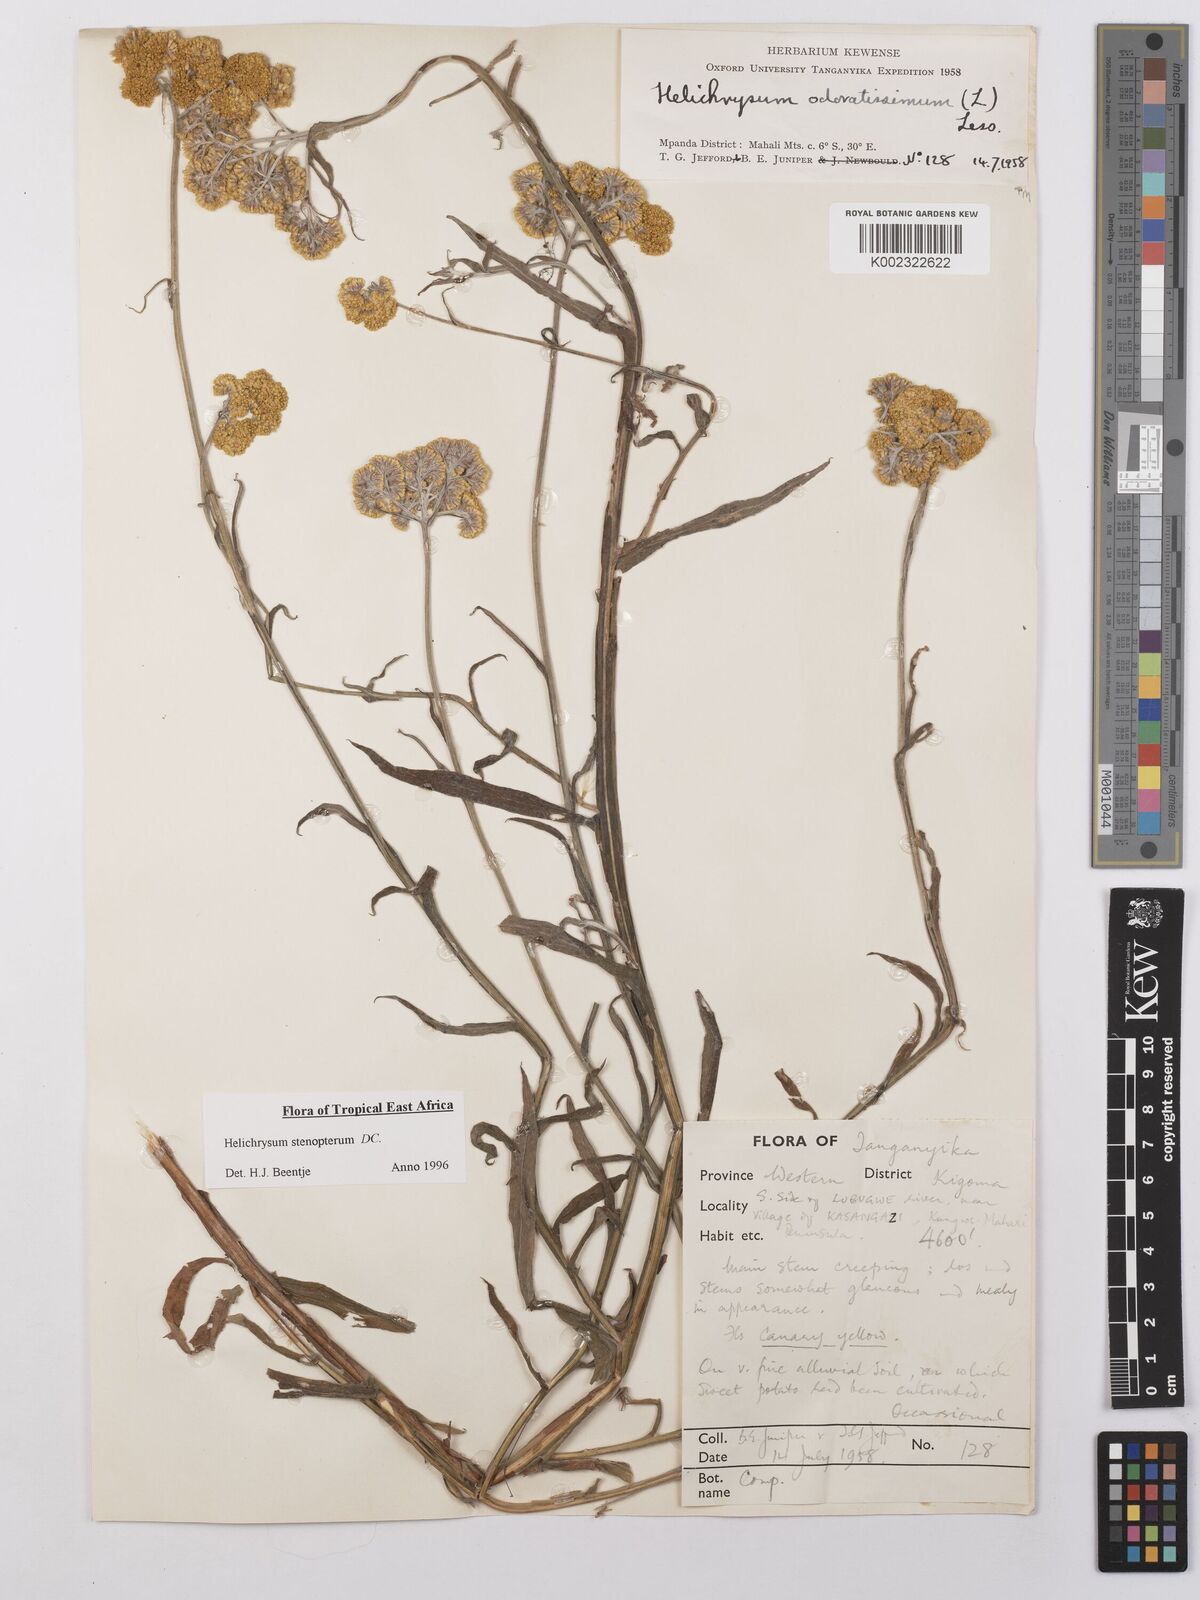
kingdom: Plantae
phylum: Tracheophyta
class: Magnoliopsida
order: Asterales
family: Asteraceae
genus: Helichrysum
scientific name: Helichrysum stenopterum
